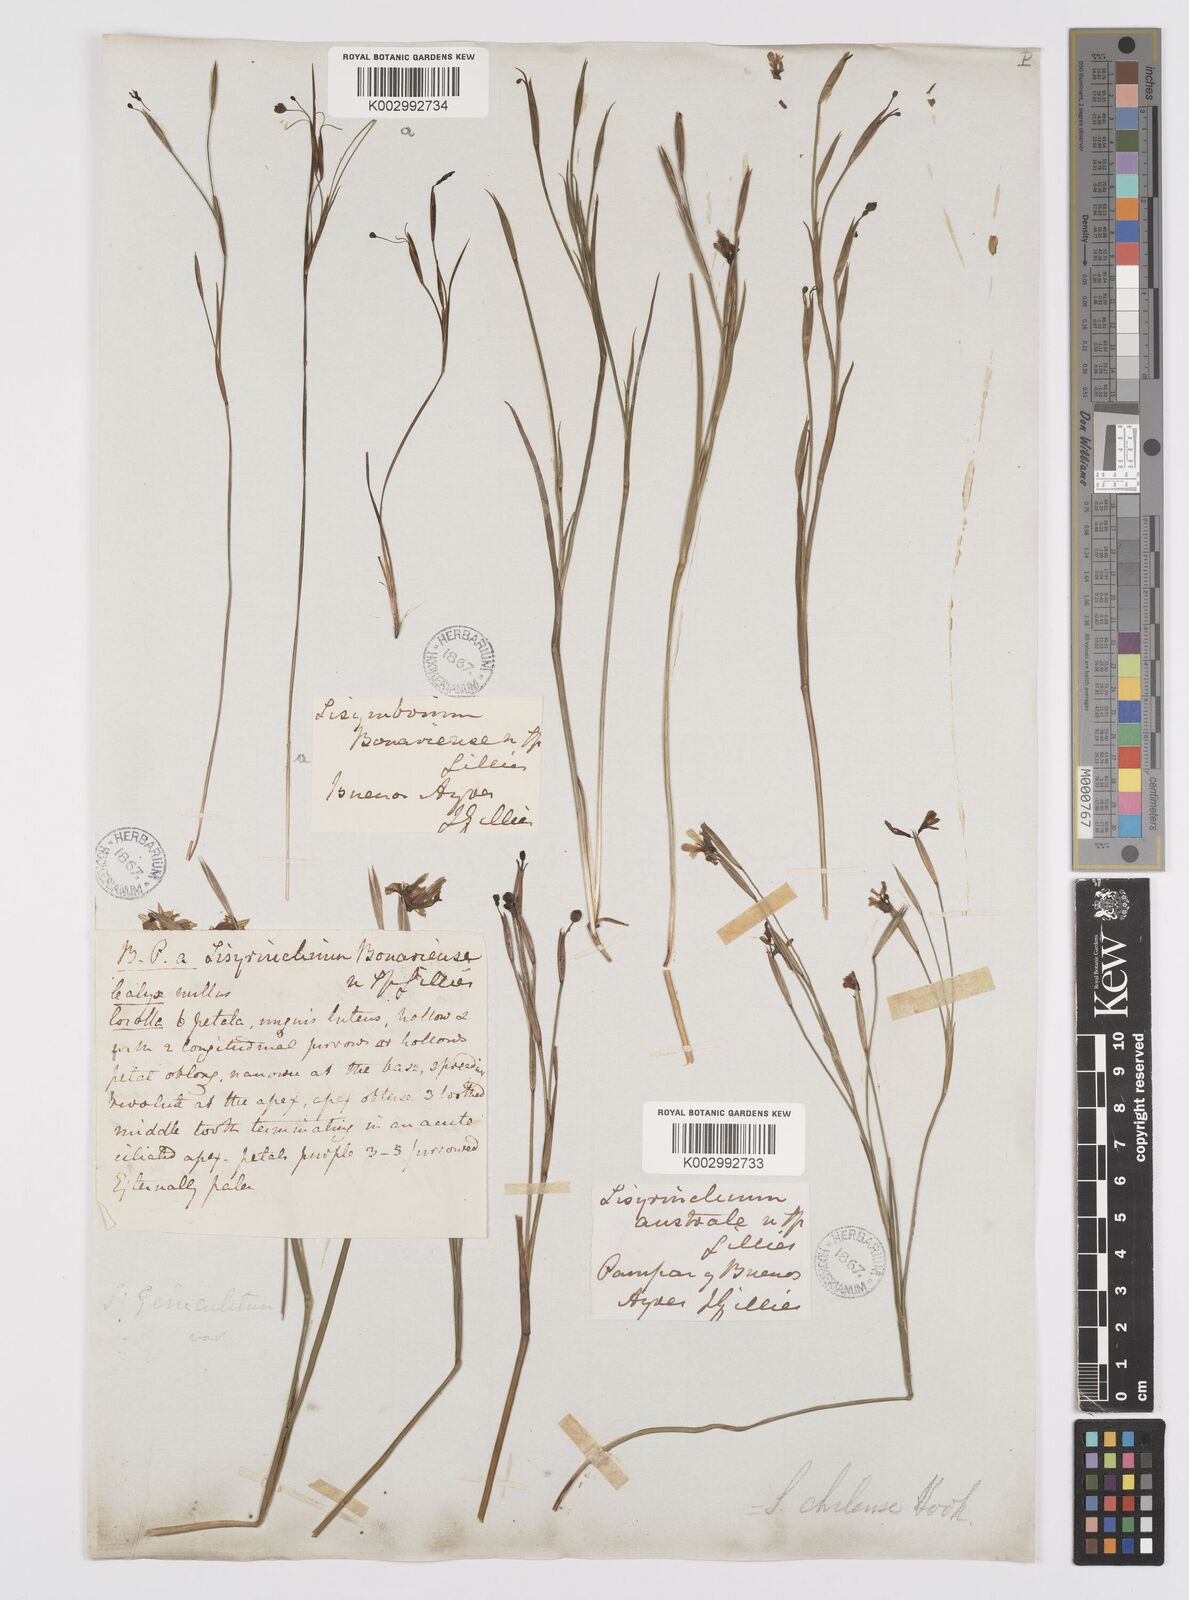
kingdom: Plantae
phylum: Tracheophyta
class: Liliopsida
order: Asparagales
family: Iridaceae
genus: Sisyrinchium
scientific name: Sisyrinchium chilense
